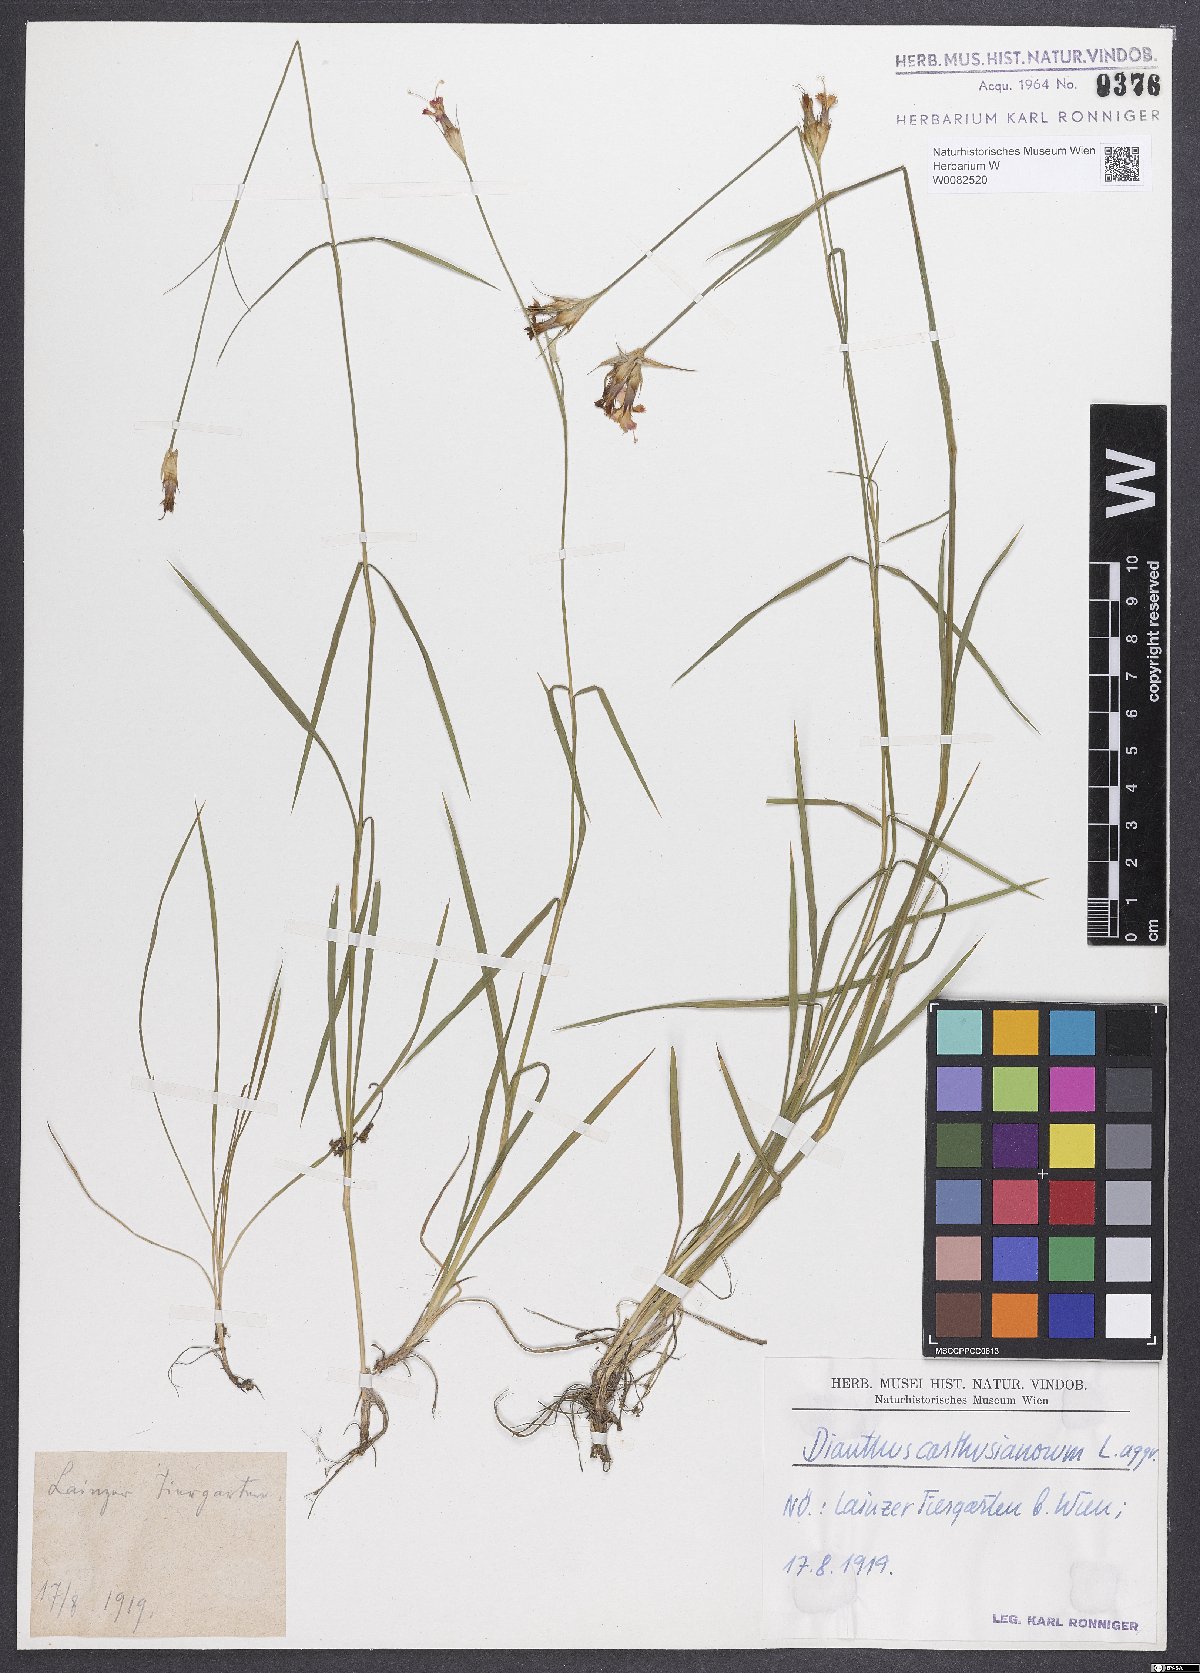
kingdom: Plantae
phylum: Tracheophyta
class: Magnoliopsida
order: Caryophyllales
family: Caryophyllaceae
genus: Dianthus
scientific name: Dianthus carthusianorum
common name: Carthusian pink
